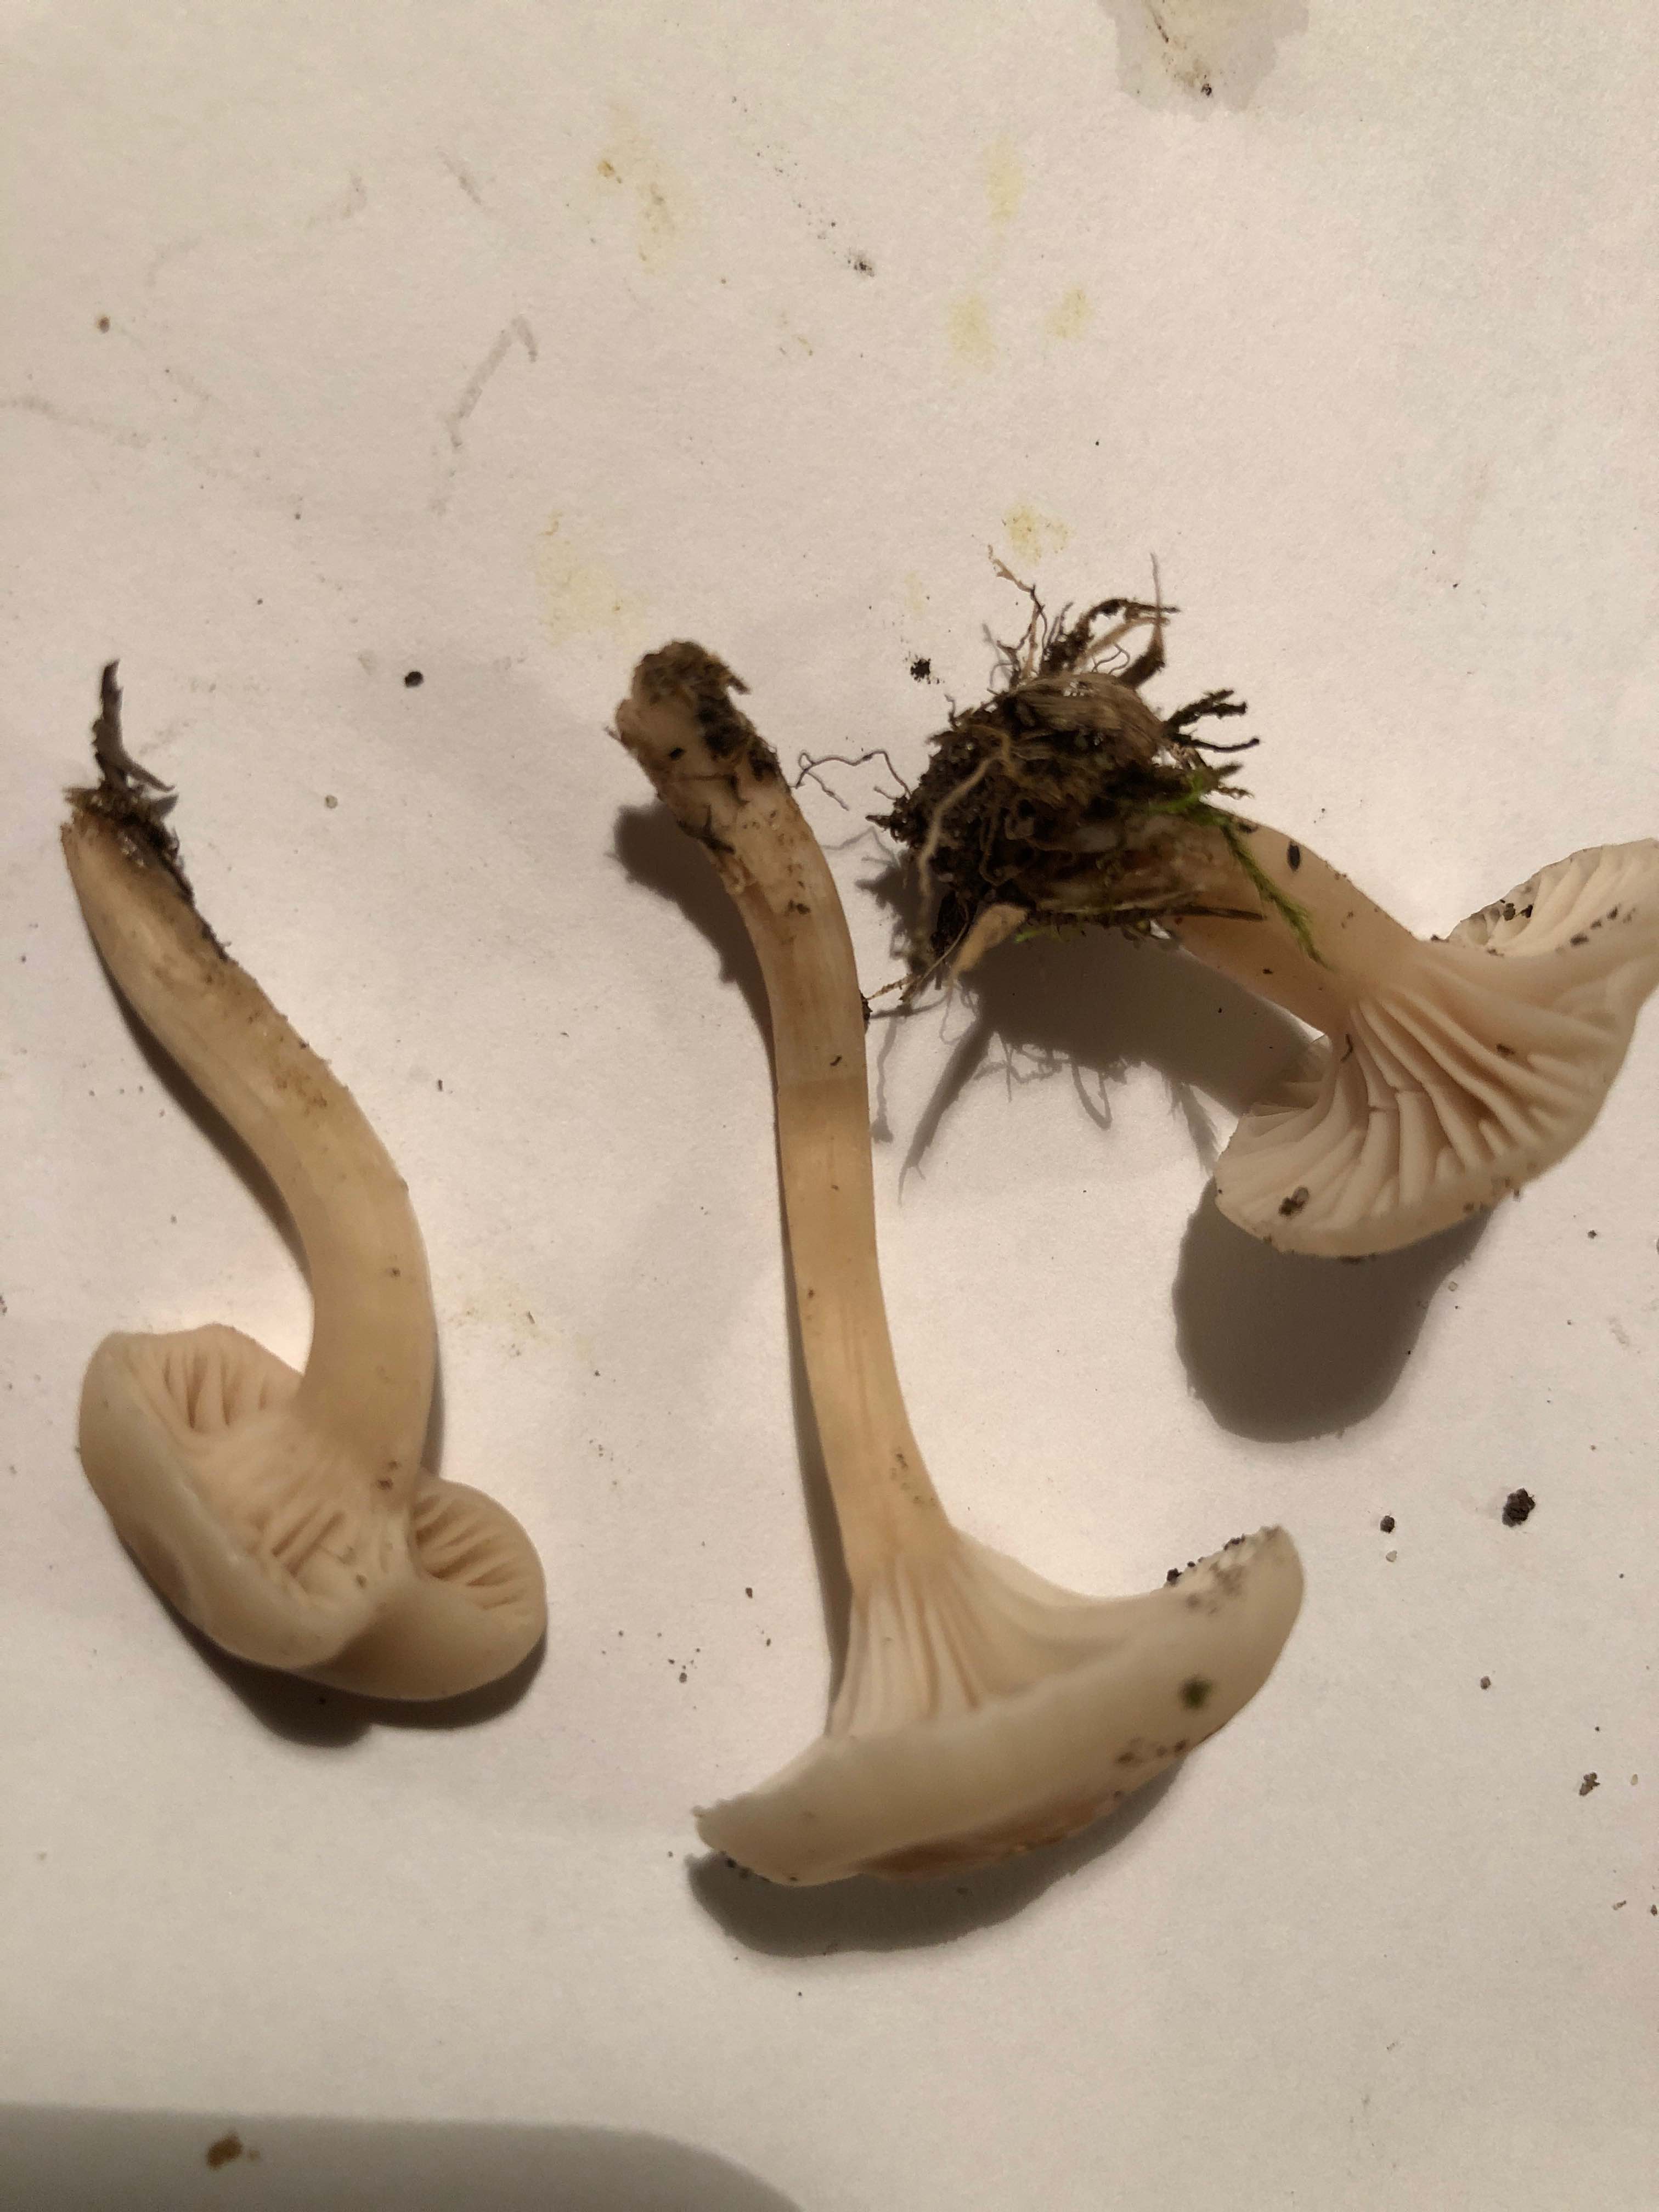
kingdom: Fungi
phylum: Basidiomycota
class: Agaricomycetes
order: Agaricales
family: Hygrophoraceae
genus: Cuphophyllus
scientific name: Cuphophyllus
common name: vokshat
